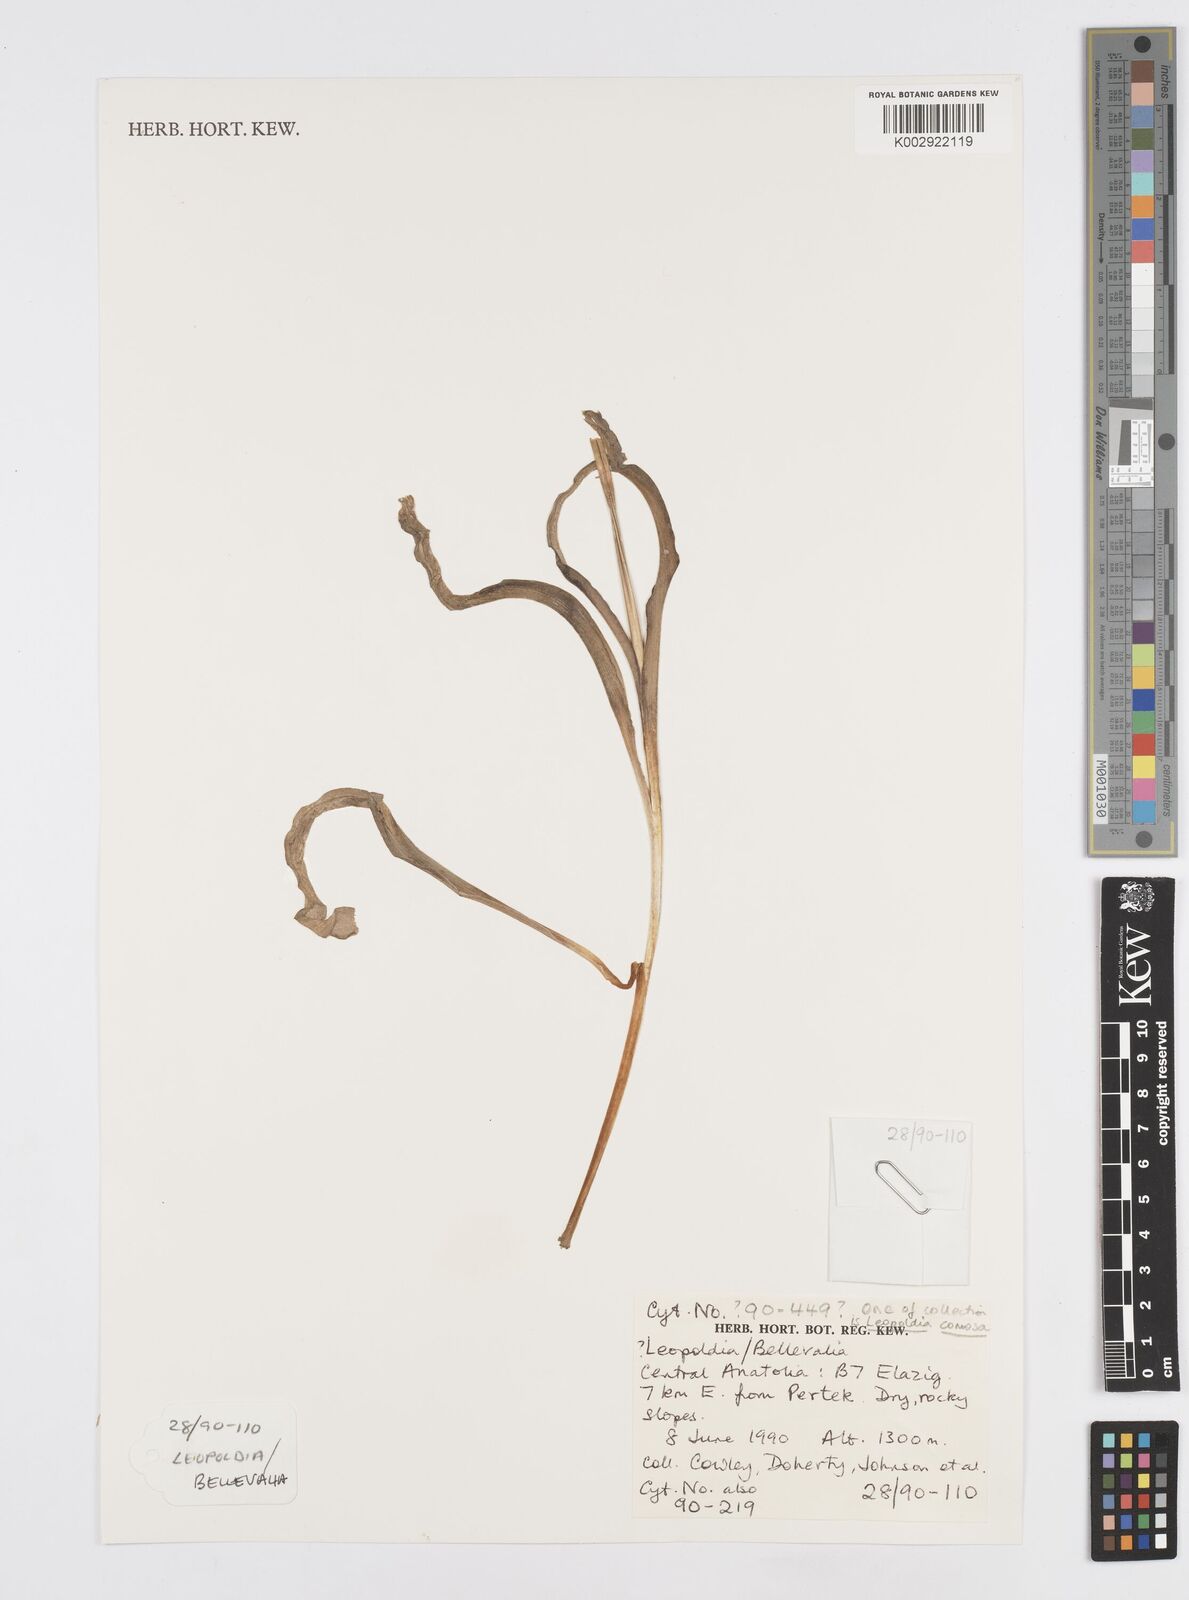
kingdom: Plantae
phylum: Tracheophyta
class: Liliopsida
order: Asparagales
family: Asparagaceae
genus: Muscari
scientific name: Muscari comosum
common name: Tassel hyacinth
